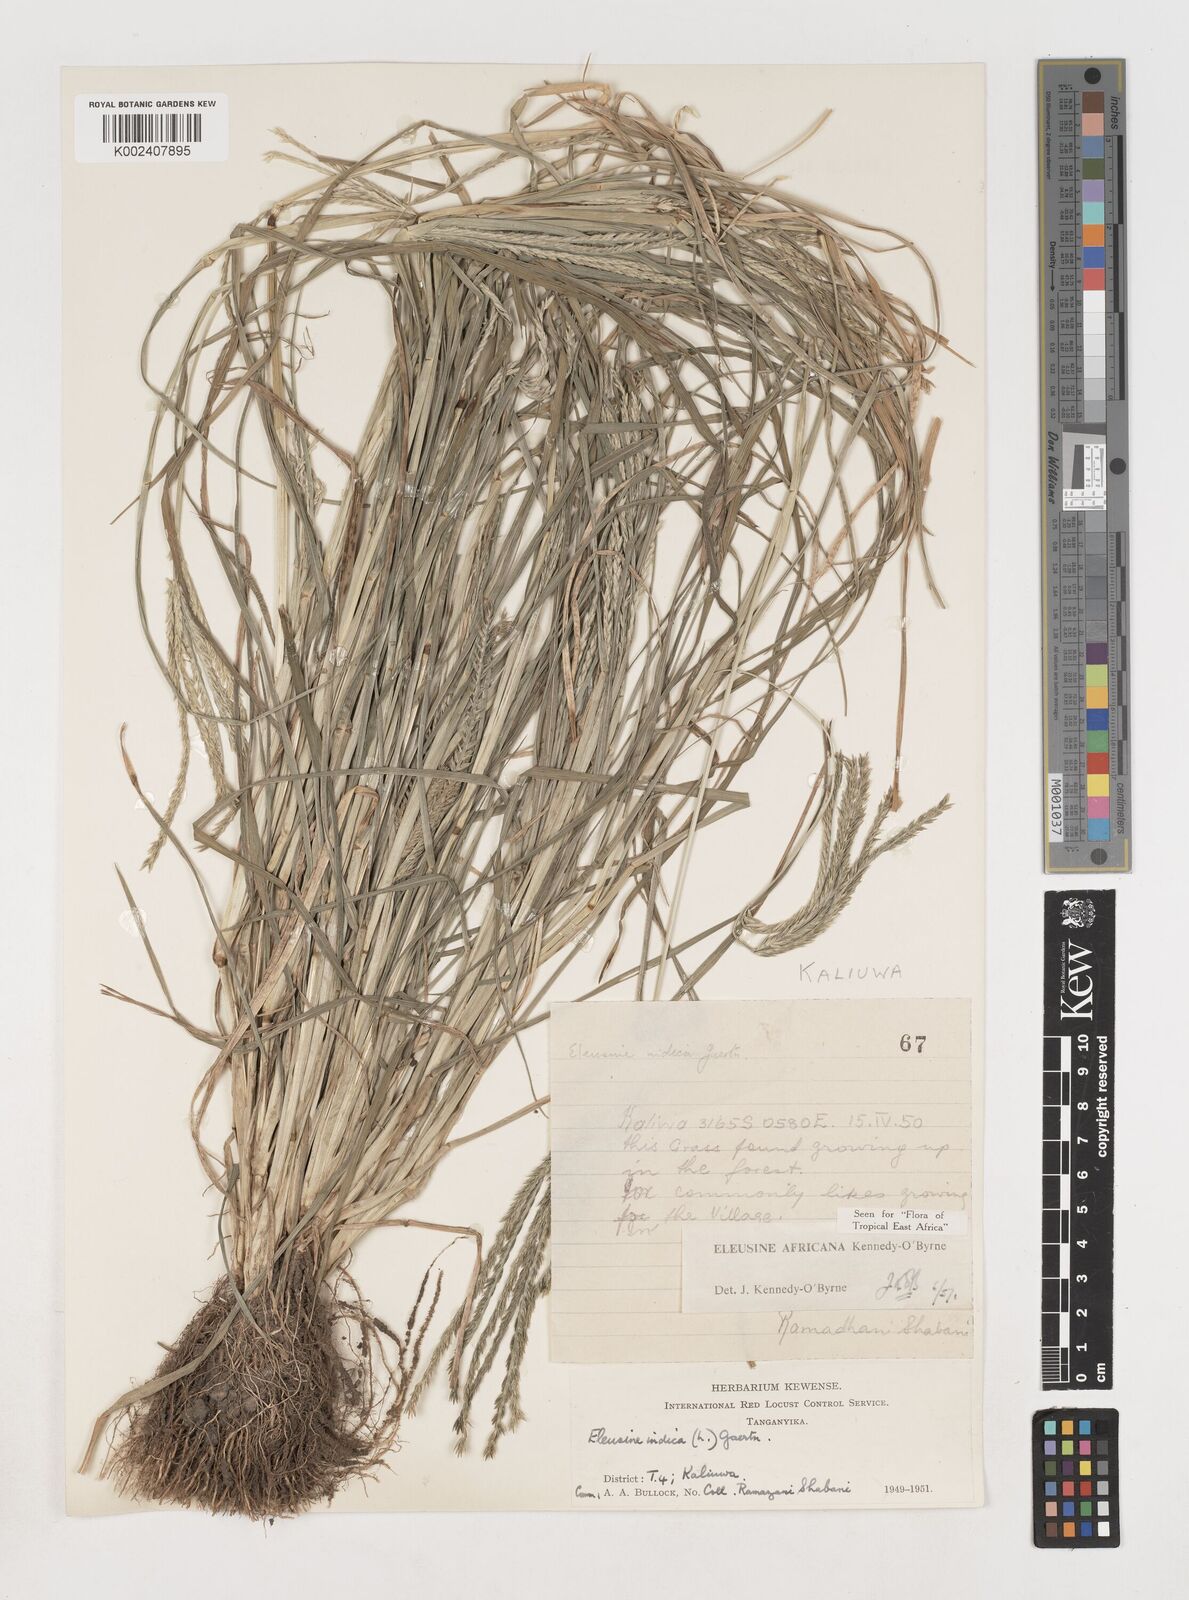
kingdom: Plantae
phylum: Tracheophyta
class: Liliopsida
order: Poales
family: Poaceae
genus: Eleusine
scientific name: Eleusine africana
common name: Wild african finger millet
